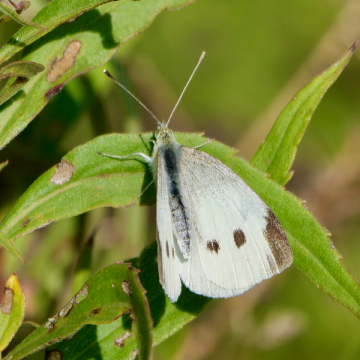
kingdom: Animalia
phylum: Arthropoda
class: Insecta
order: Lepidoptera
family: Pieridae
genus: Pieris
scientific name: Pieris rapae
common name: Cabbage White
